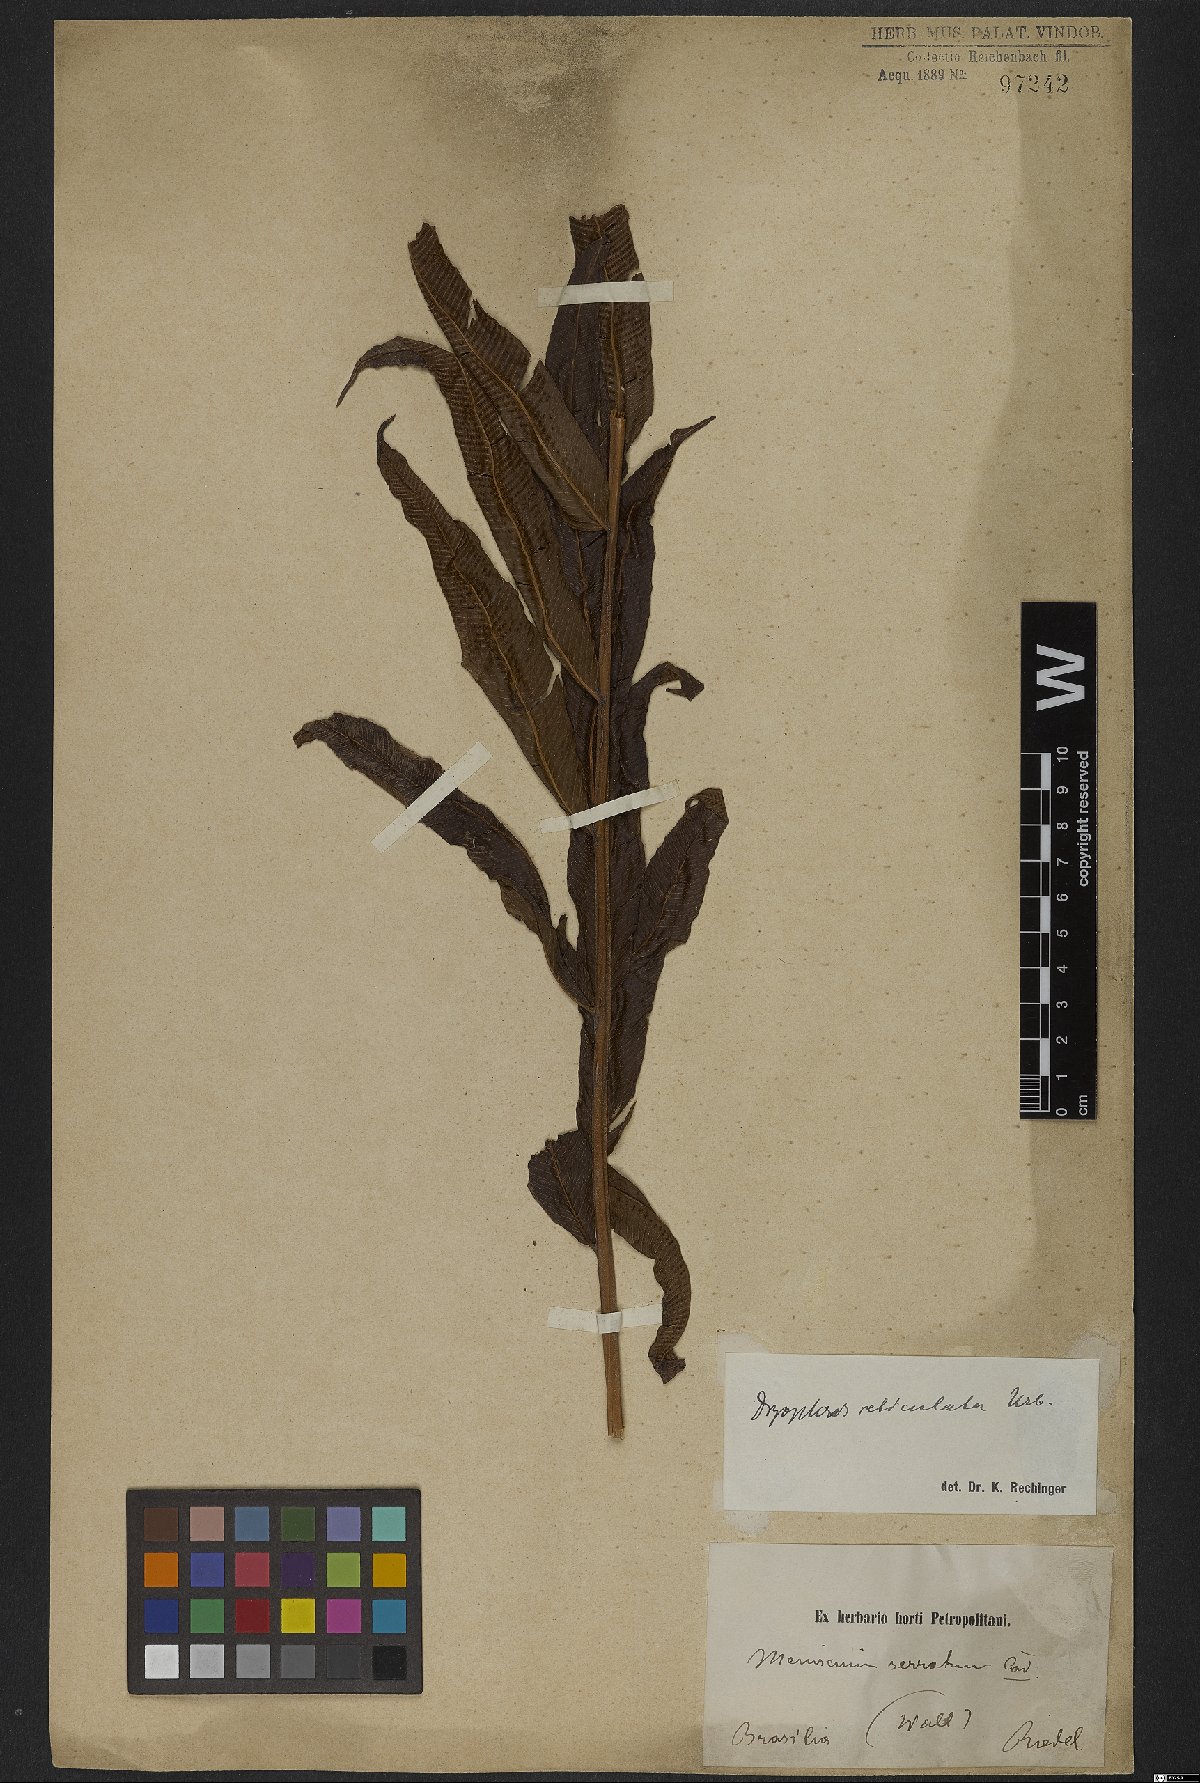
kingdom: Plantae
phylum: Tracheophyta
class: Polypodiopsida
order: Polypodiales
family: Thelypteridaceae
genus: Meniscium
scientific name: Meniscium reticulatum
